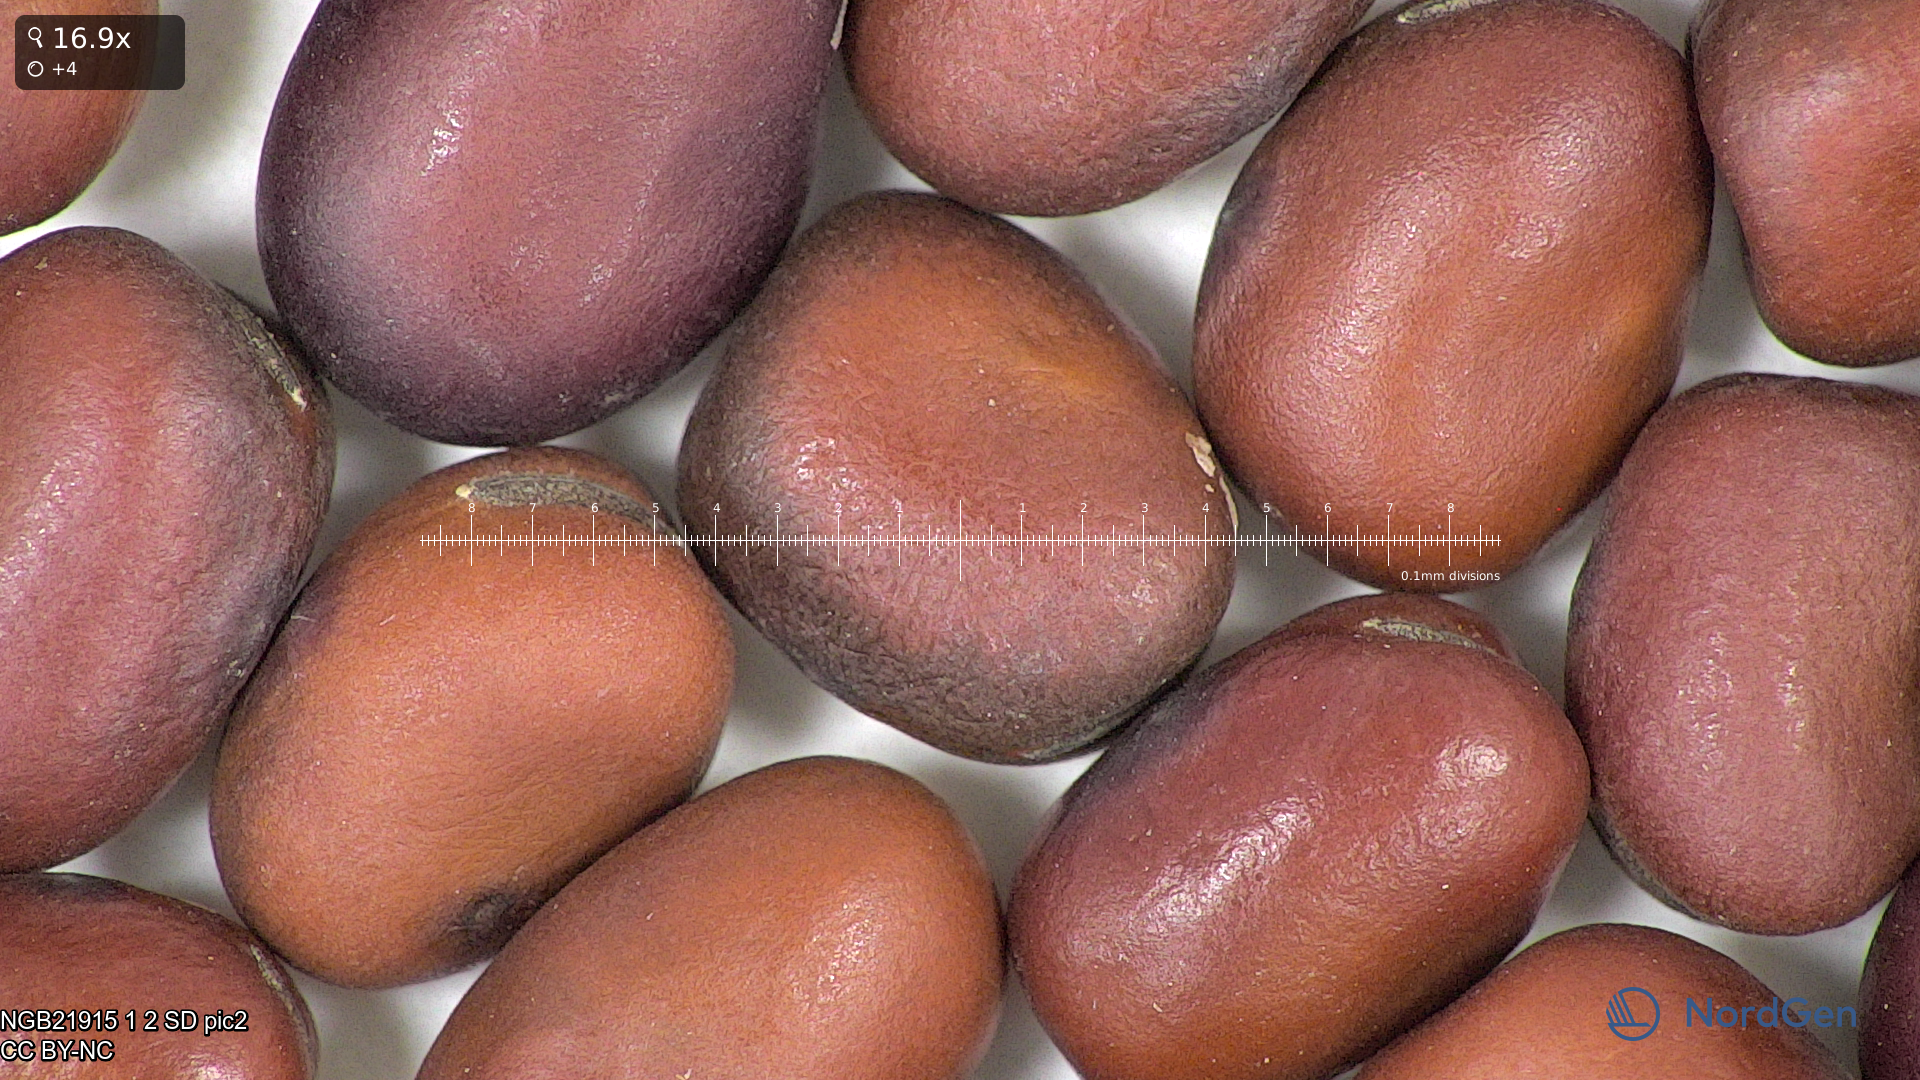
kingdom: Plantae
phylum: Tracheophyta
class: Magnoliopsida
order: Fabales
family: Fabaceae
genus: Vicia
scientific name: Vicia faba
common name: Broad bean
